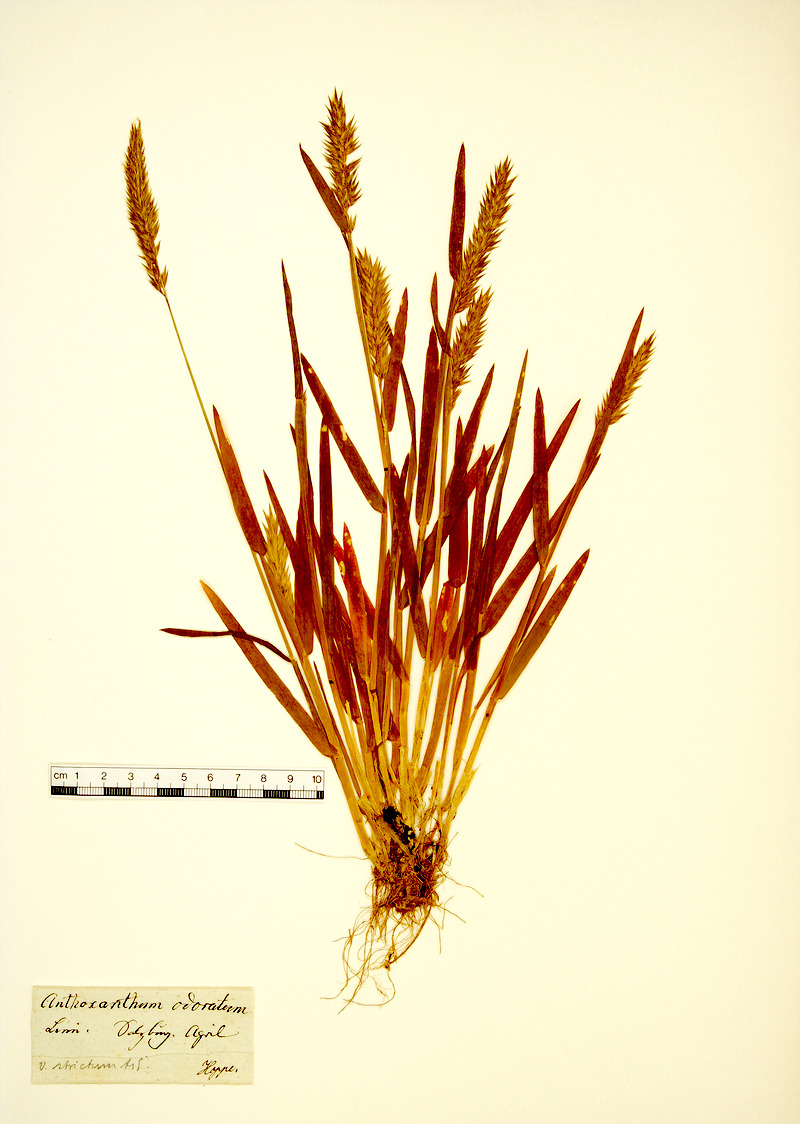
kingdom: Plantae
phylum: Tracheophyta
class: Liliopsida
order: Poales
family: Poaceae
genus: Anthoxanthum
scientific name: Anthoxanthum odoratum
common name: Sweet vernalgrass
